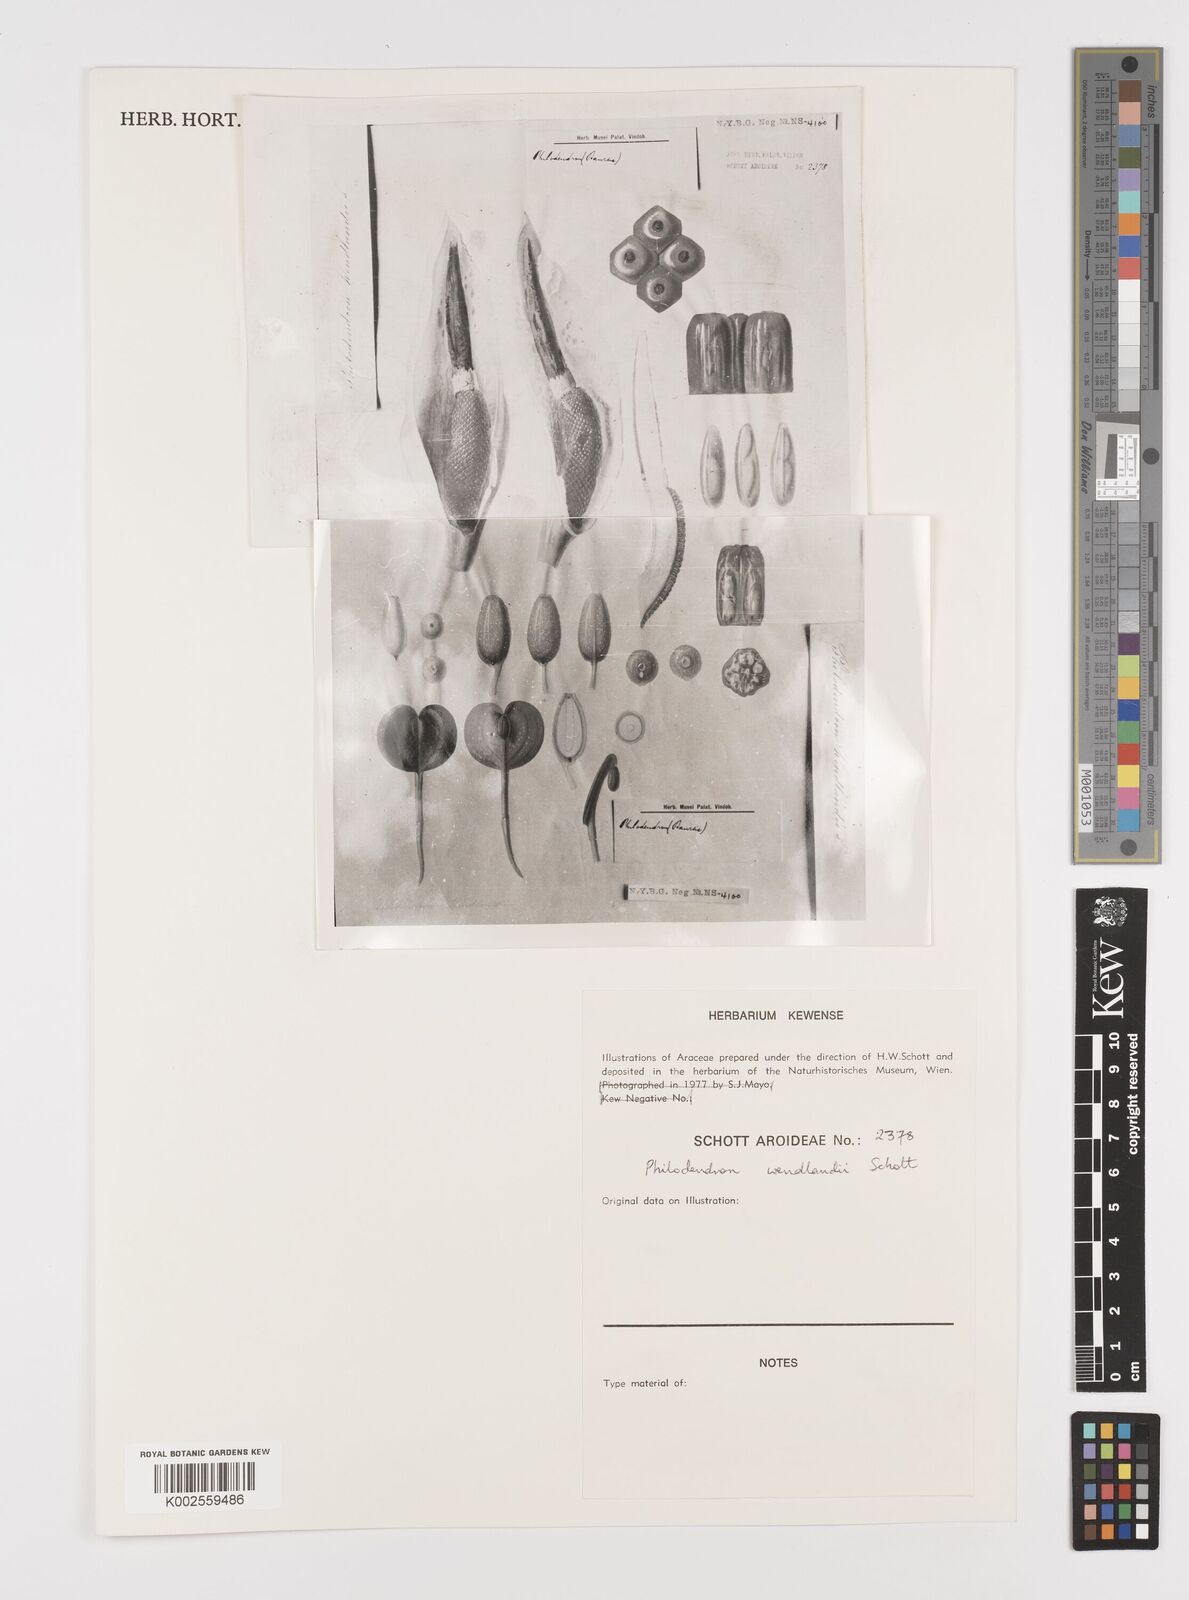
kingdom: Plantae
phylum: Tracheophyta
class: Liliopsida
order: Alismatales
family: Araceae
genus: Philodendron
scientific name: Philodendron wendlandii
